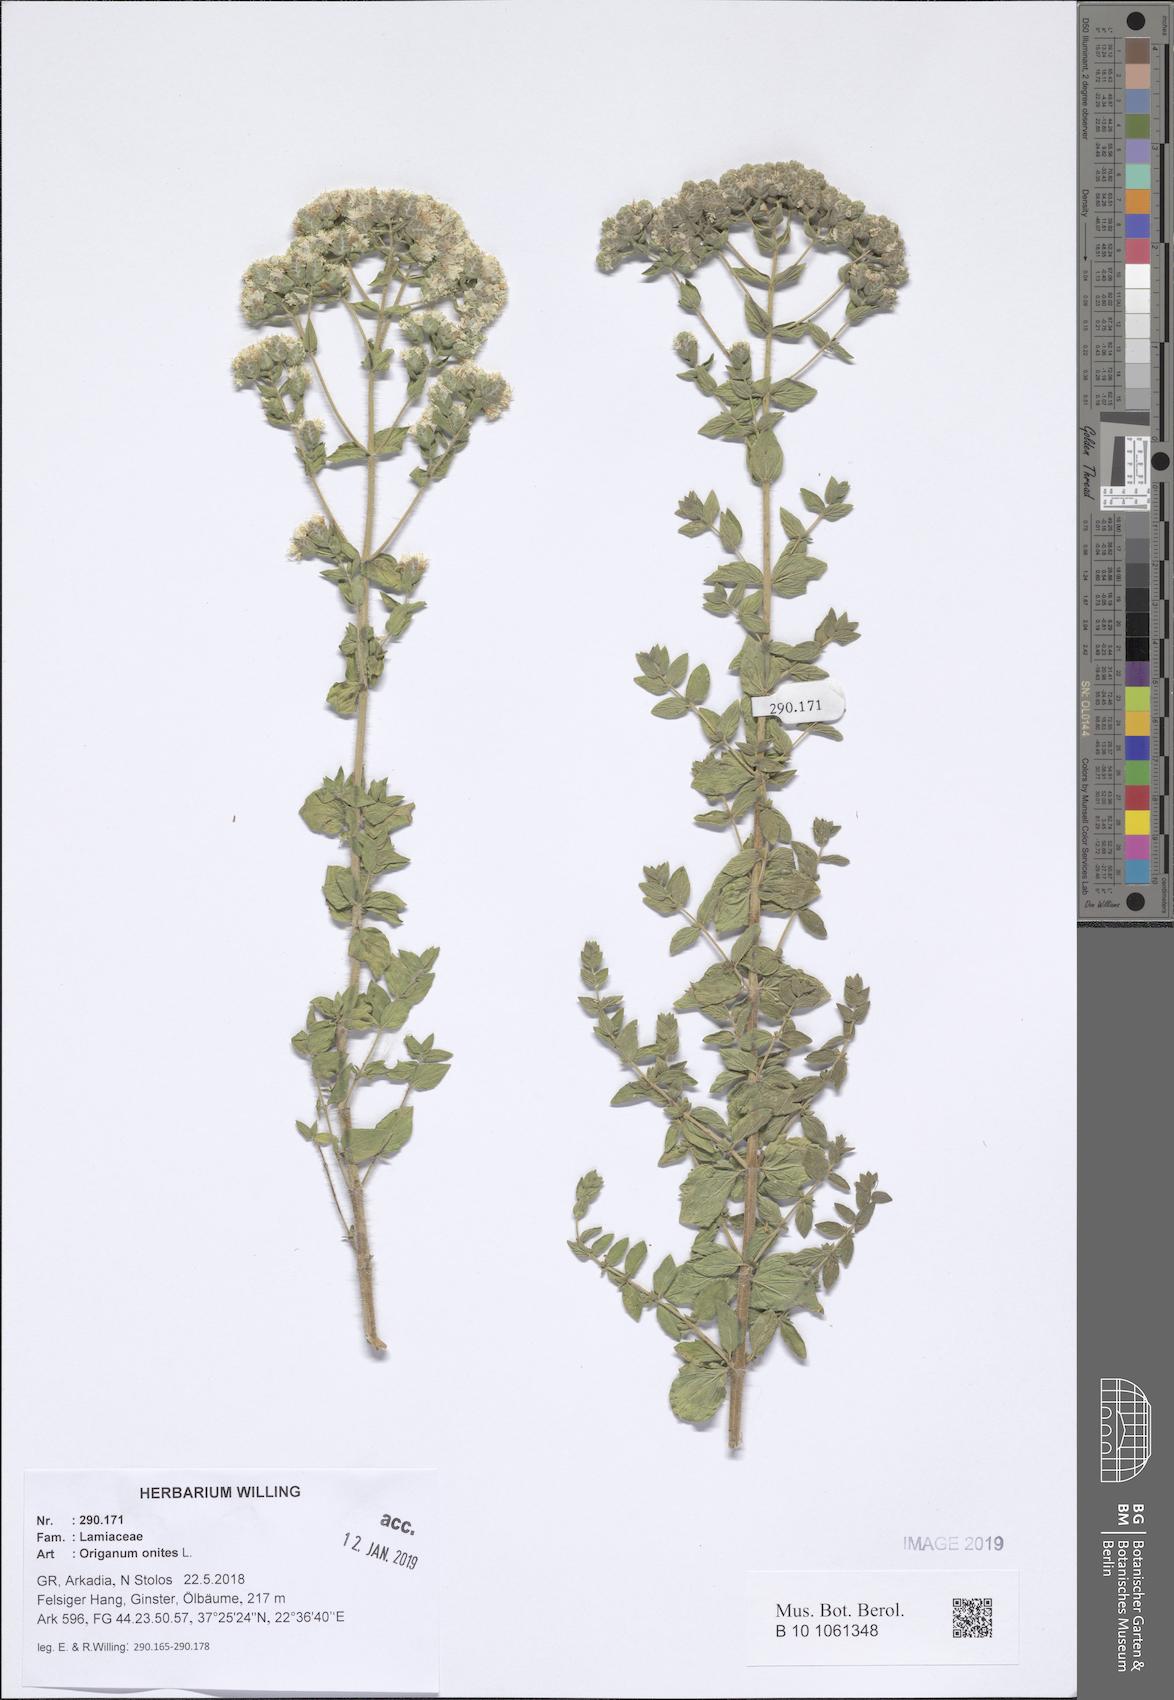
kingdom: Plantae
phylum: Tracheophyta
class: Magnoliopsida
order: Lamiales
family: Lamiaceae
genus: Origanum
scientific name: Origanum onites
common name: Turkish oregano
